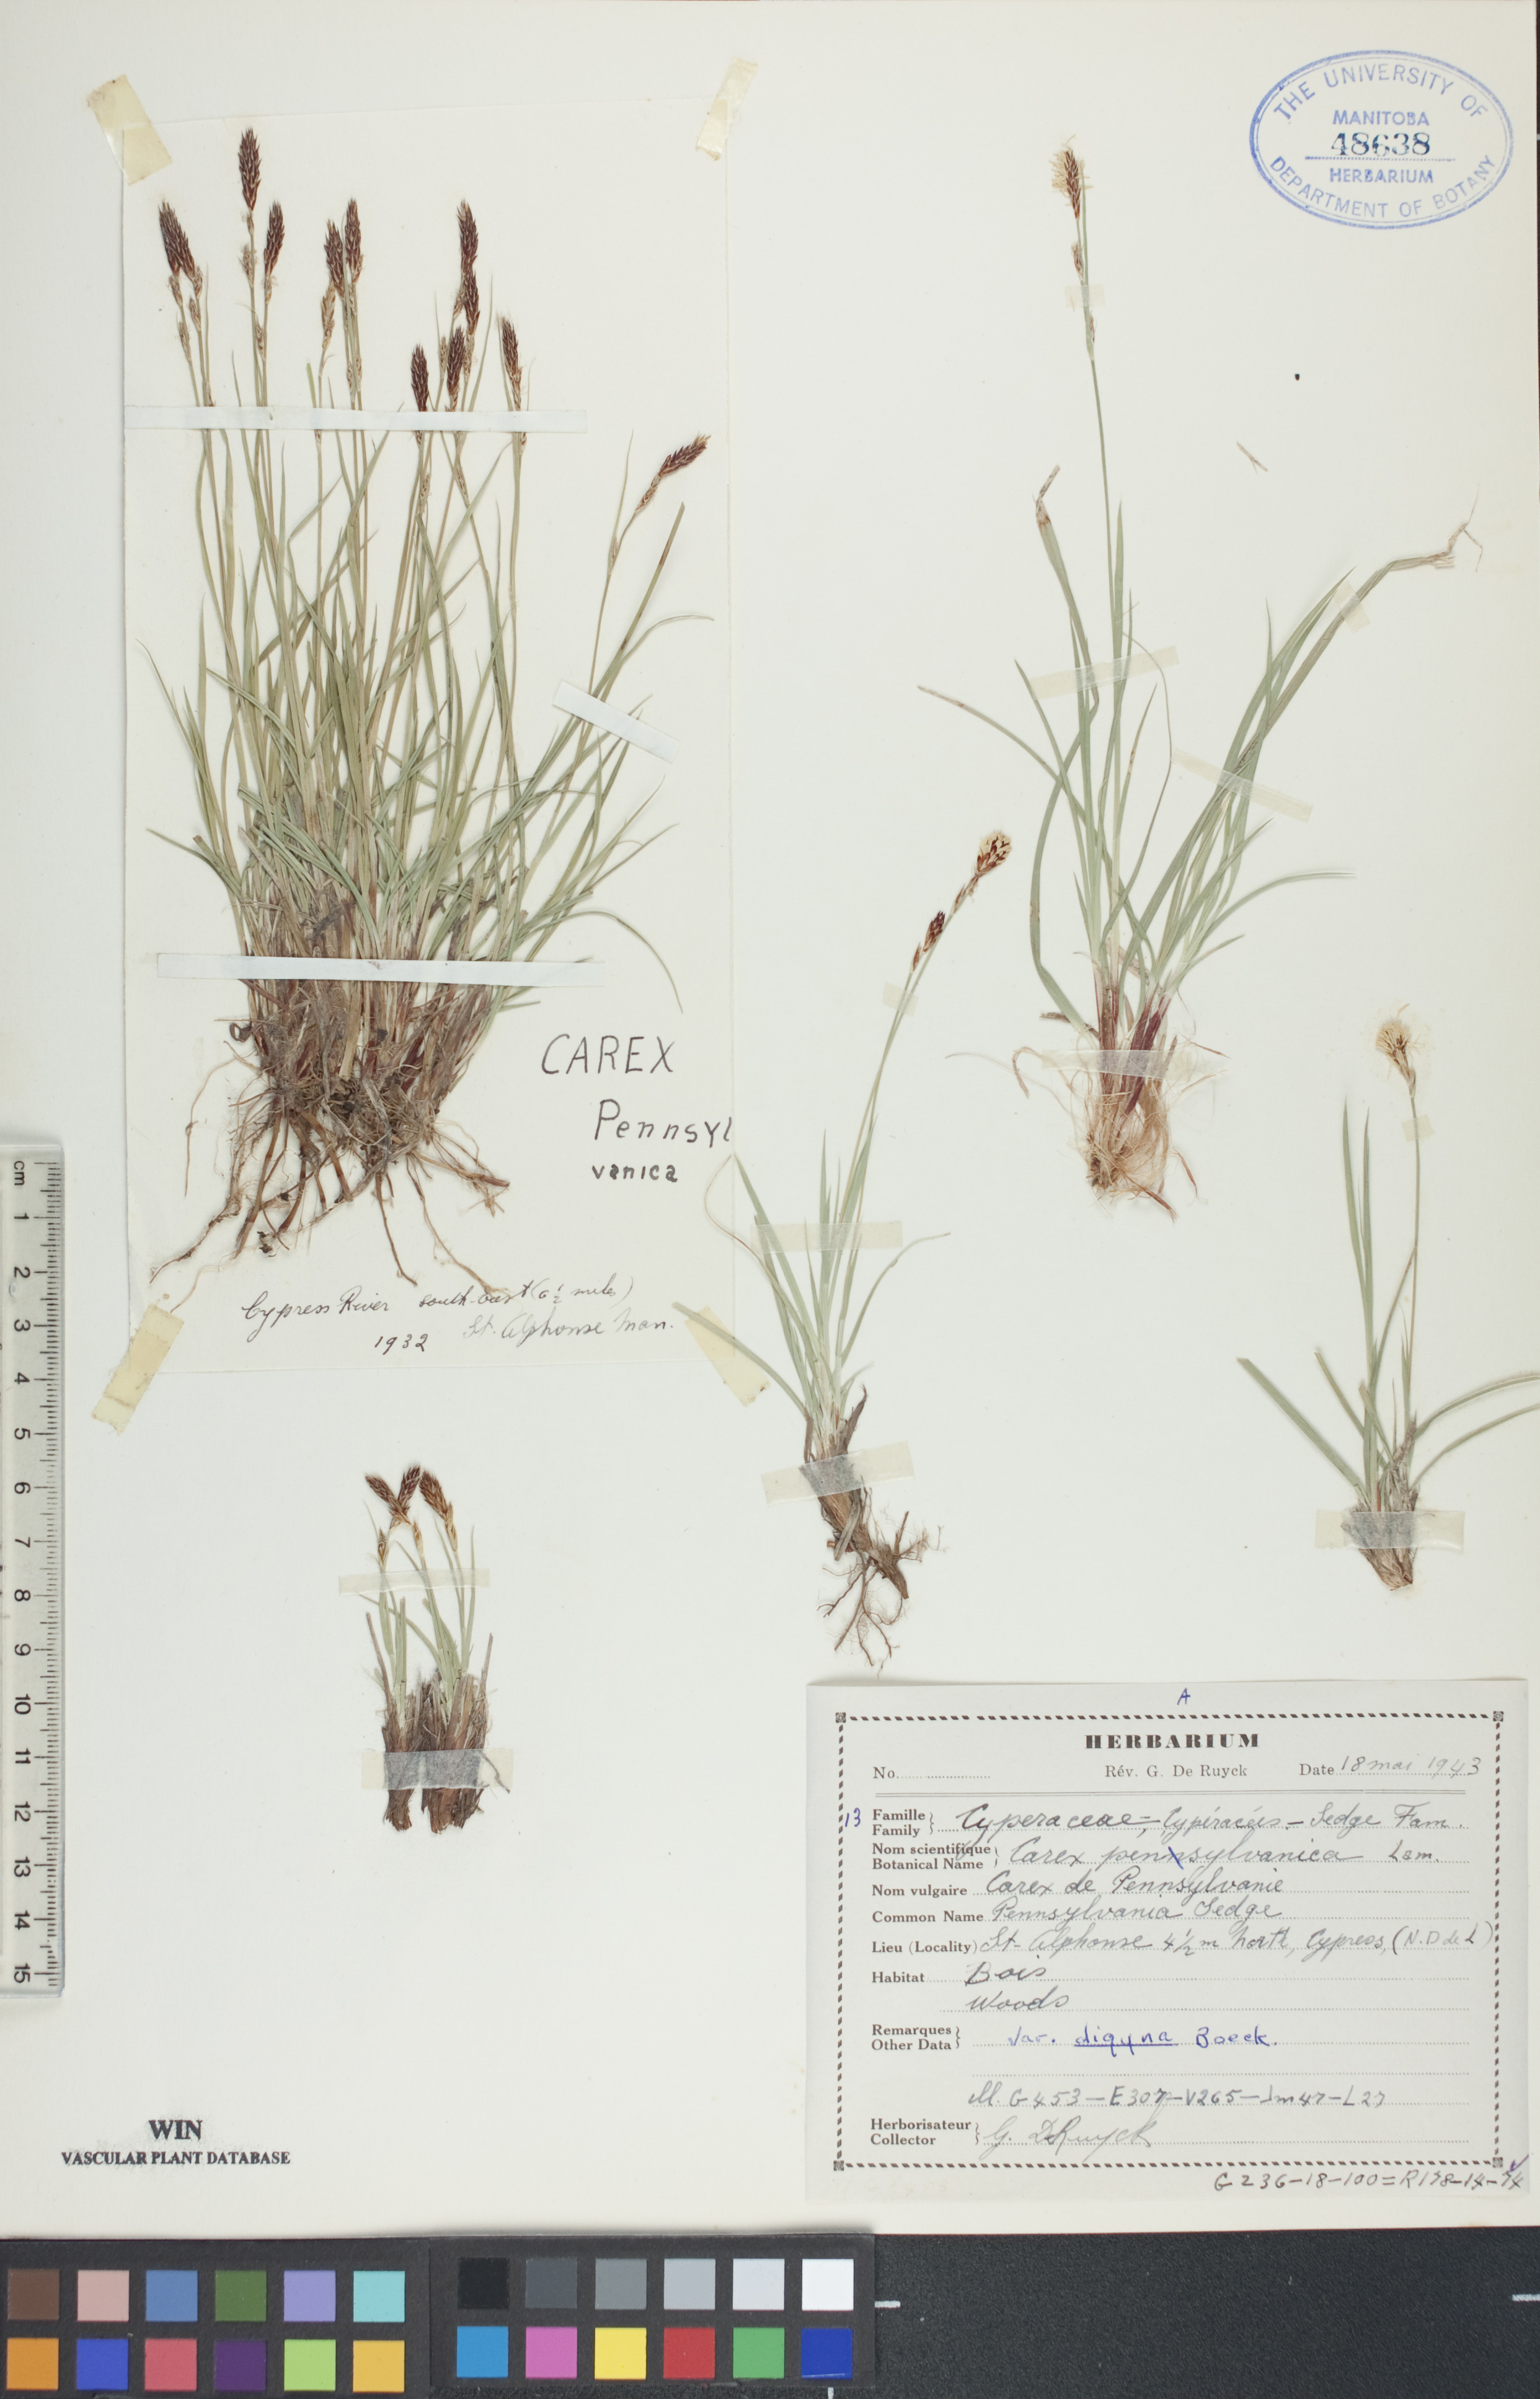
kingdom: Plantae
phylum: Tracheophyta
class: Liliopsida
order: Poales
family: Cyperaceae
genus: Carex
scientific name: Carex pensylvanica
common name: Common oak sedge
